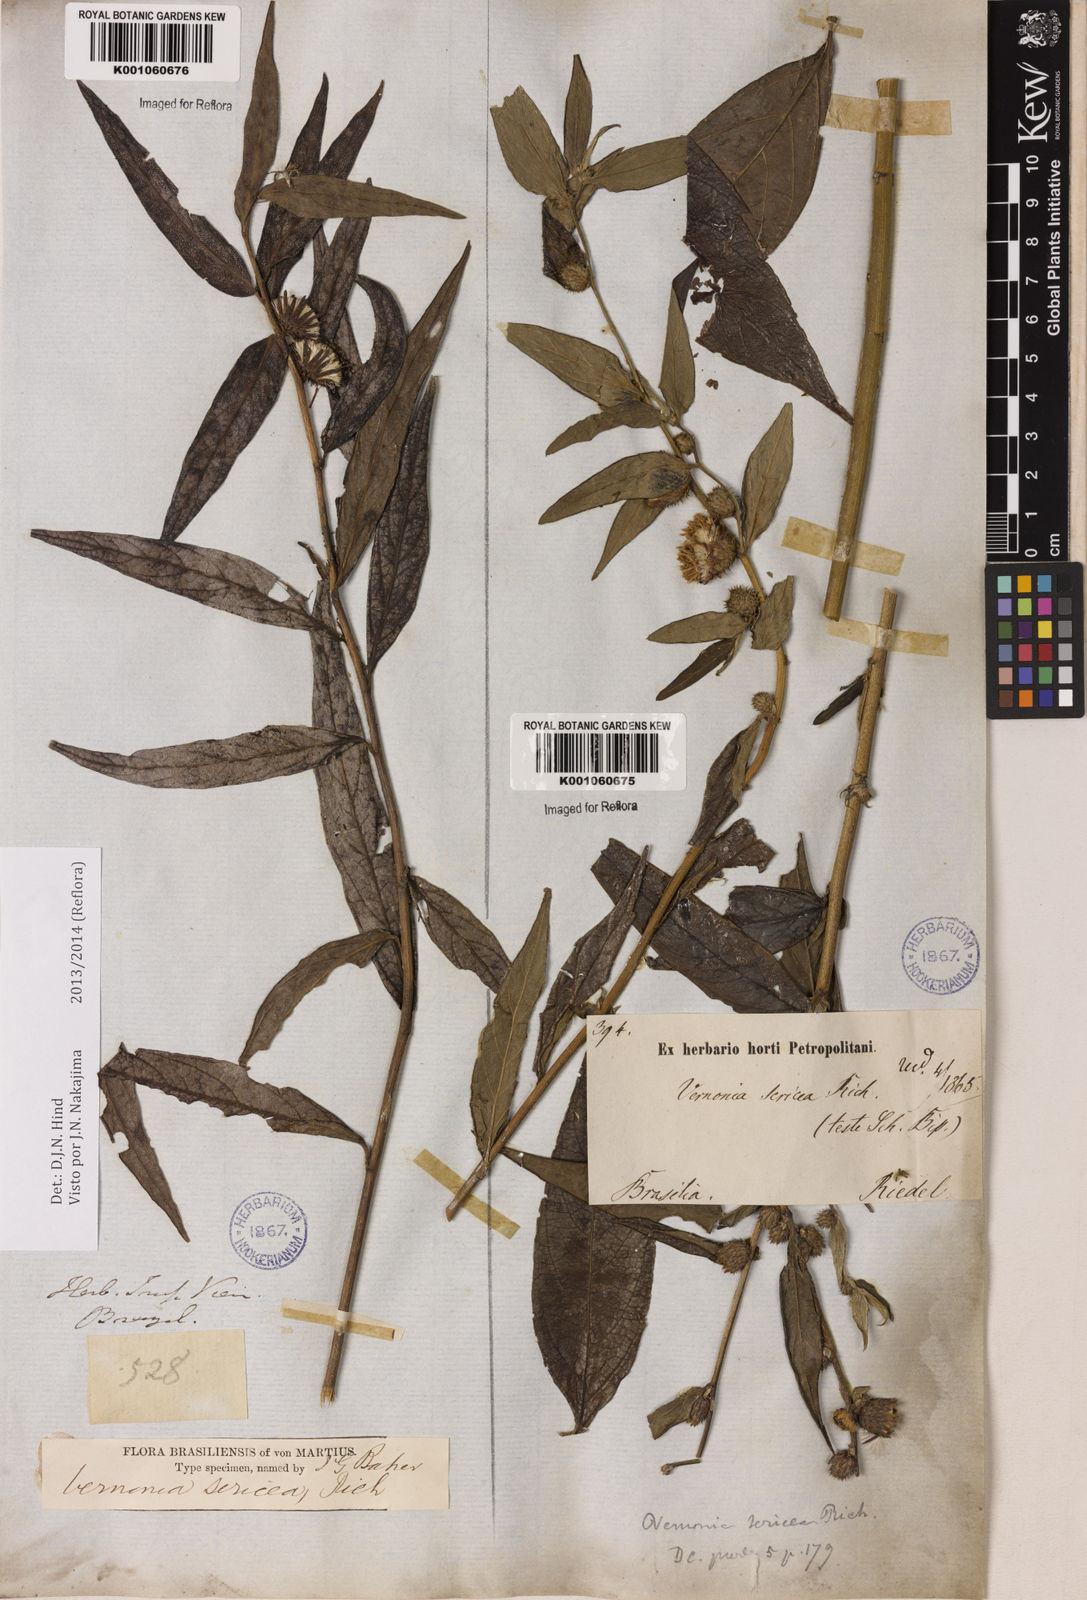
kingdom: Plantae
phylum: Tracheophyta
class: Magnoliopsida
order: Asterales
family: Asteraceae
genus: Lepidaploa
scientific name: Lepidaploa sericea
